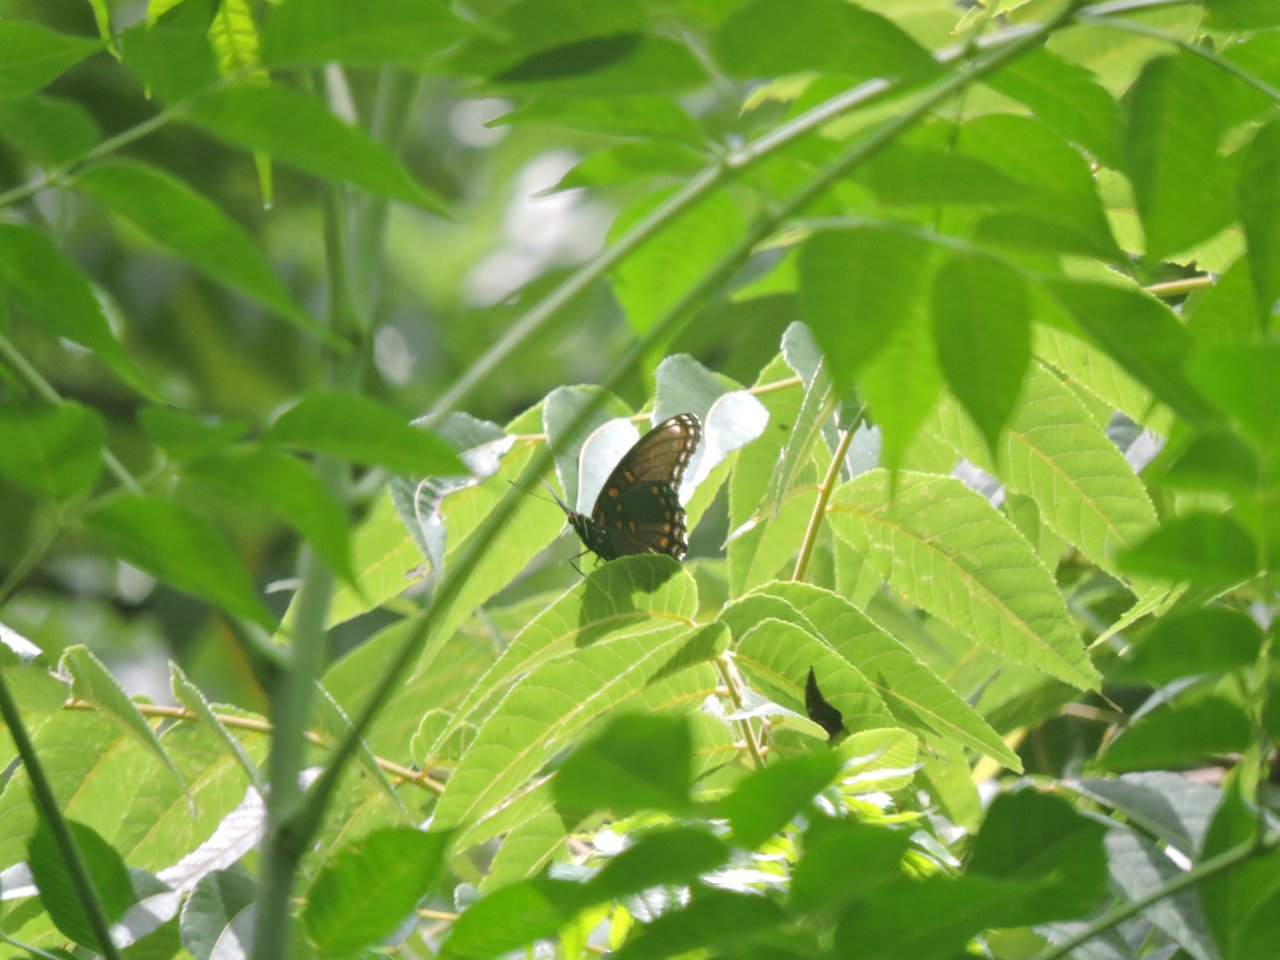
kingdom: Animalia
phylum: Arthropoda
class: Insecta
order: Lepidoptera
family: Nymphalidae
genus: Limenitis
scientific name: Limenitis arthemis
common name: Red-spotted Admiral
